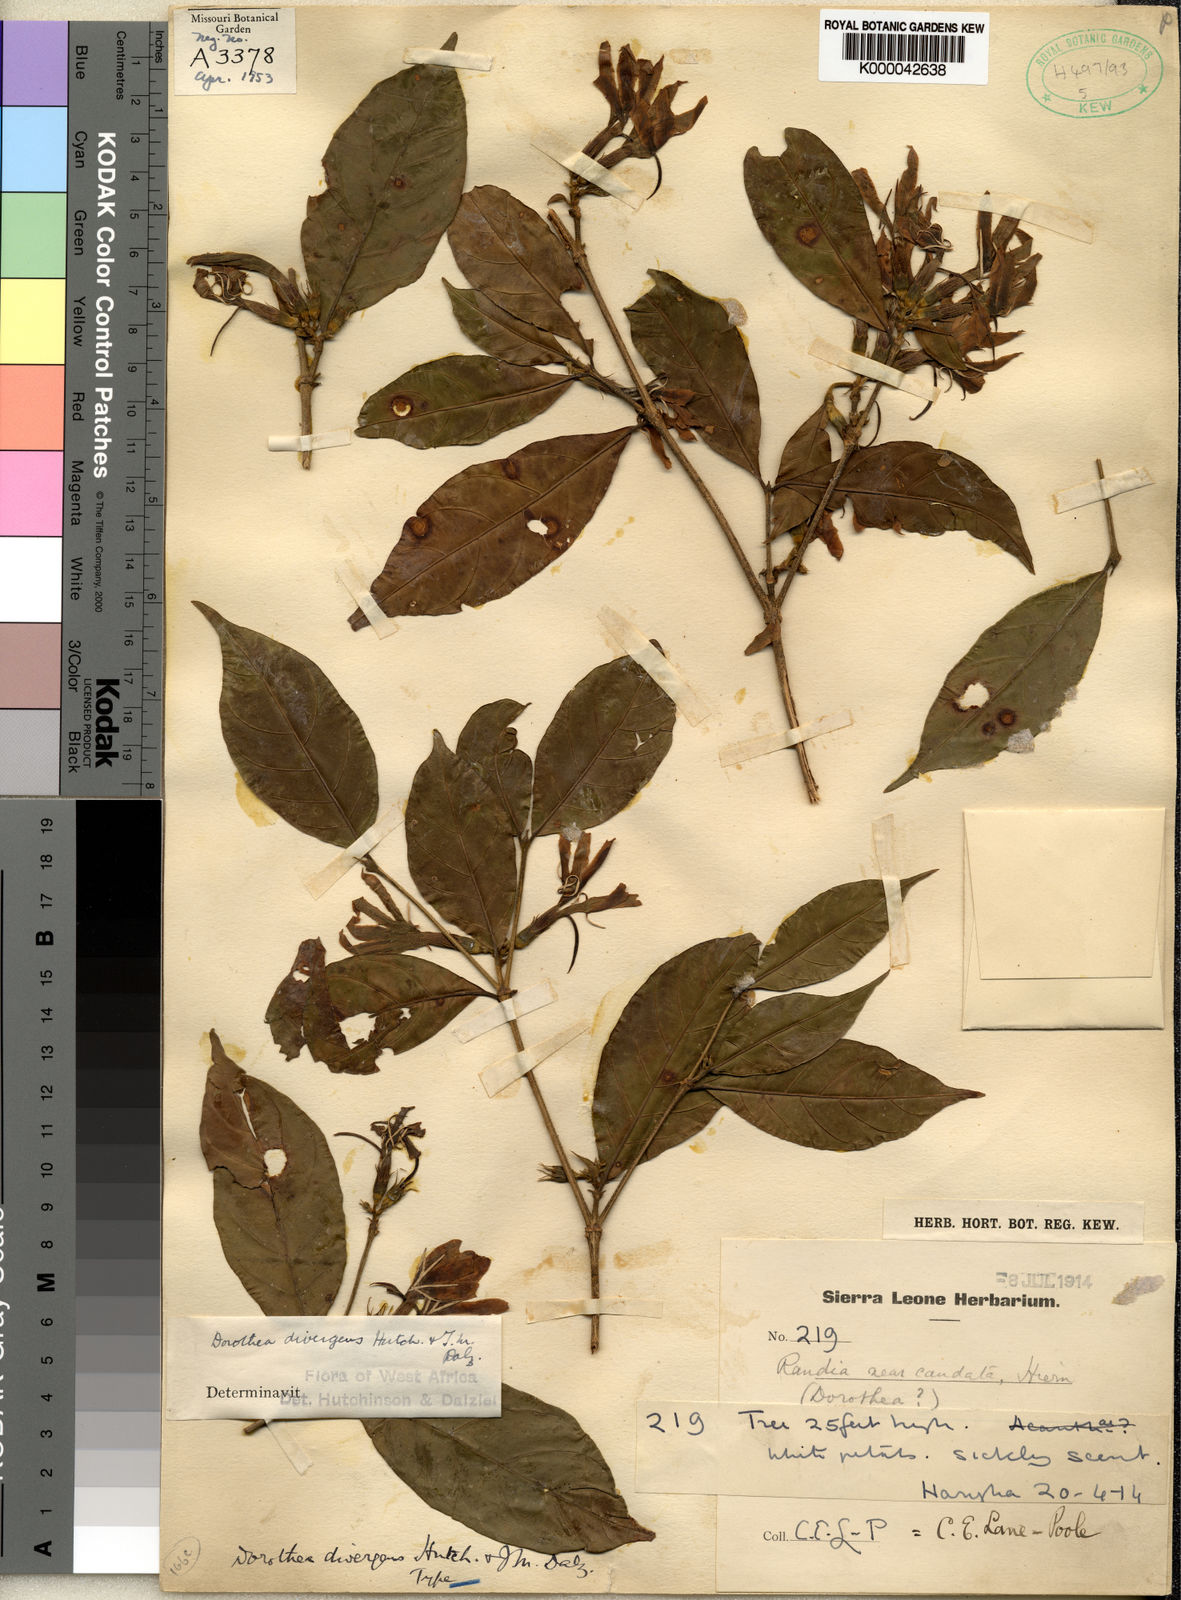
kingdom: Plantae
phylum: Tracheophyta
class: Magnoliopsida
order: Gentianales
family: Rubiaceae
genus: Aulacocalyx
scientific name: Aulacocalyx divergens
